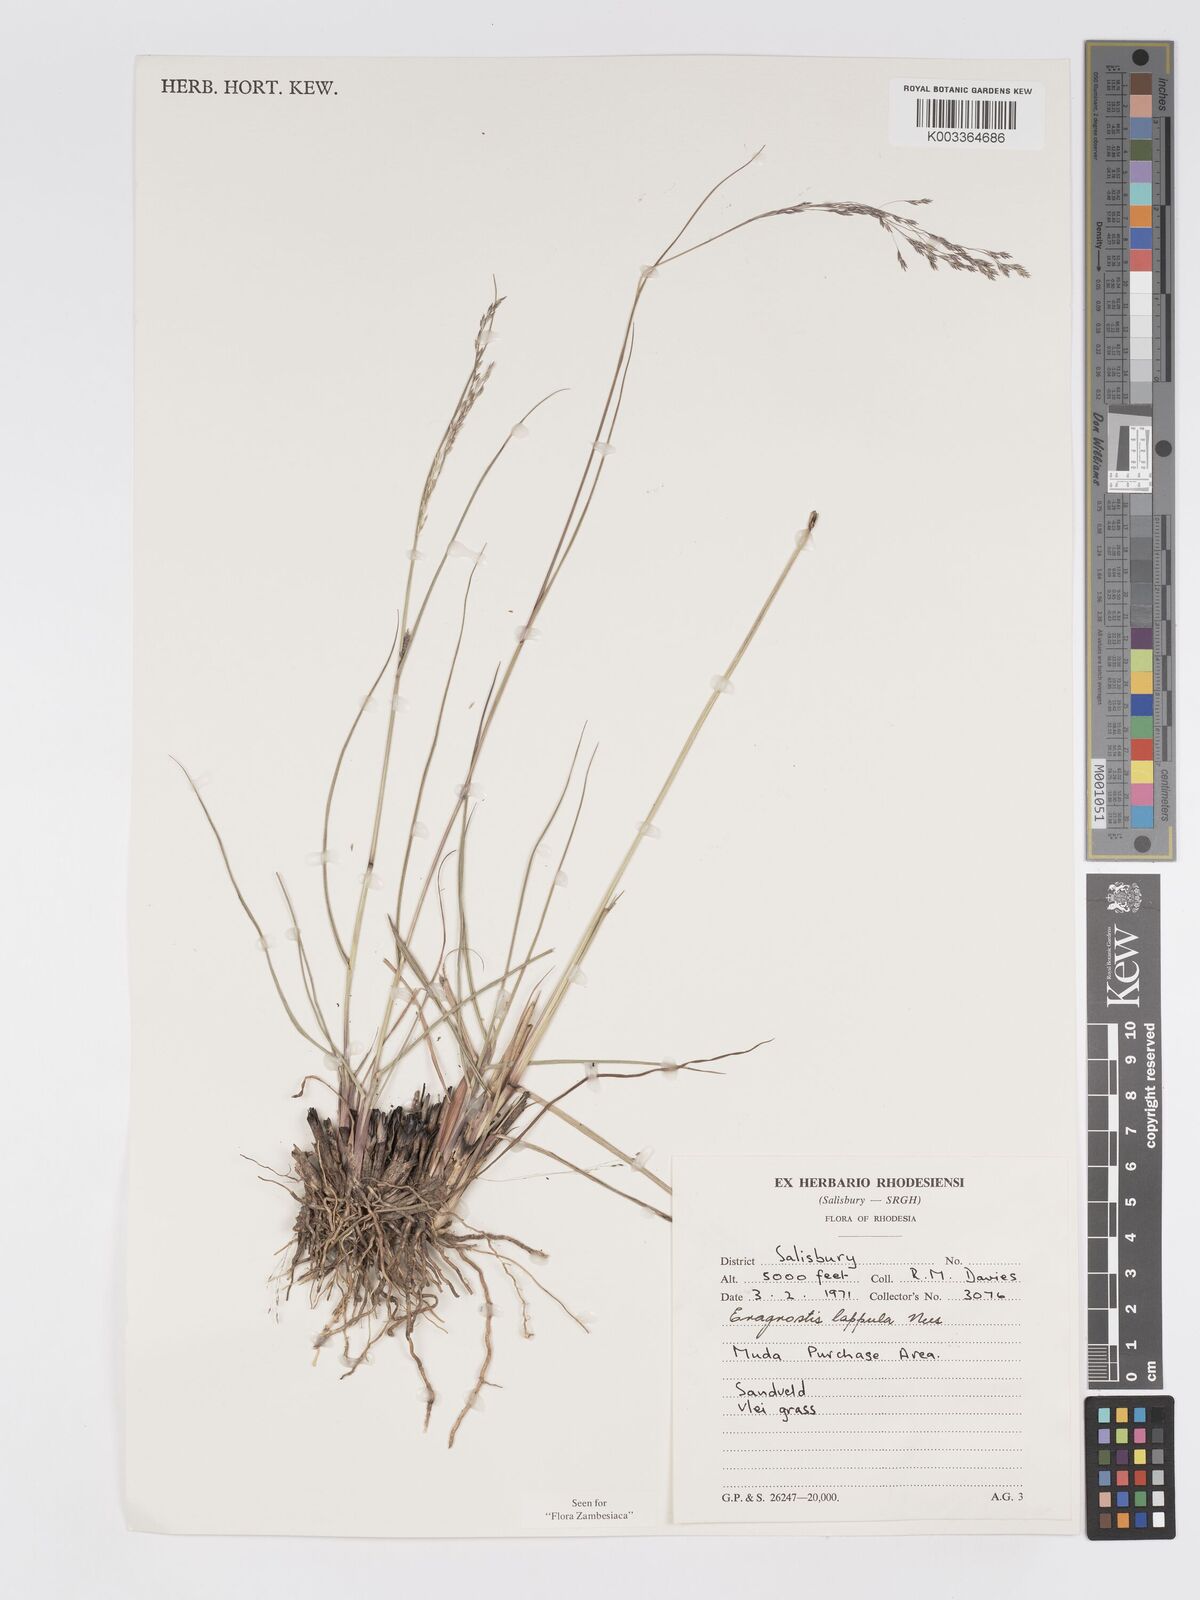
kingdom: Plantae
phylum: Tracheophyta
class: Liliopsida
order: Poales
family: Poaceae
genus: Eragrostis
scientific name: Eragrostis lappula
